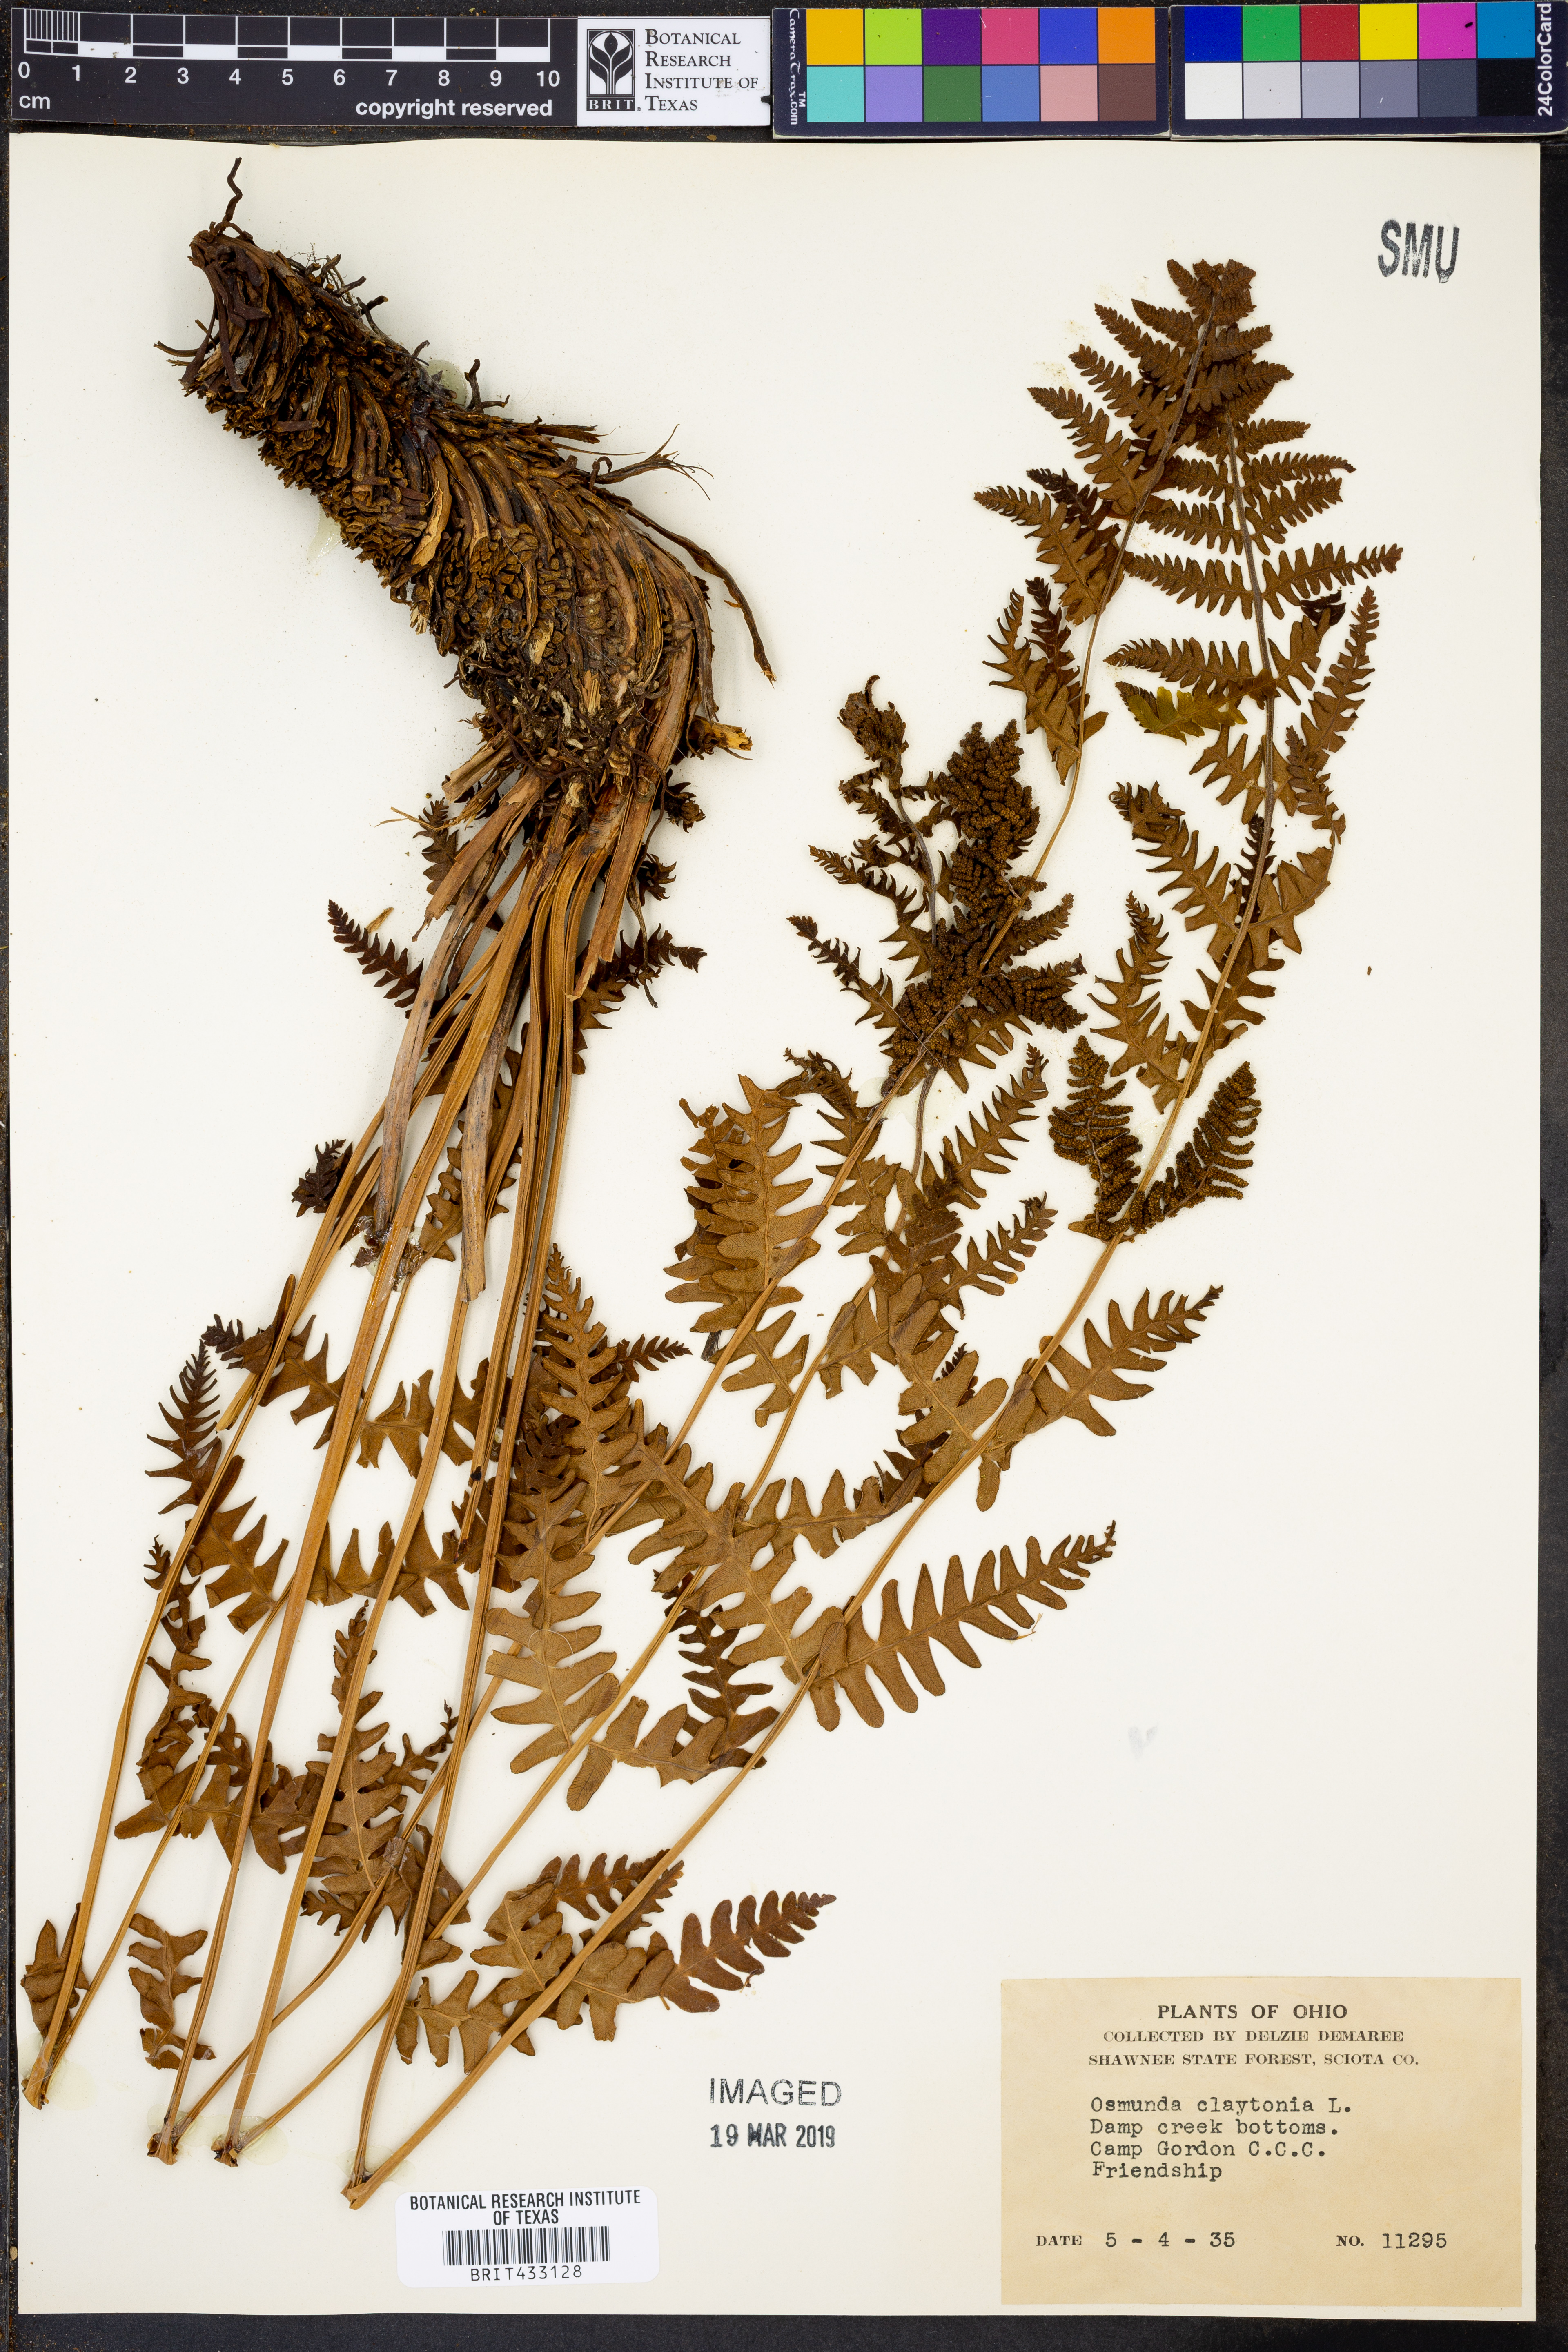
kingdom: Plantae
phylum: Tracheophyta
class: Polypodiopsida
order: Osmundales
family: Osmundaceae
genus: Claytosmunda
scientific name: Claytosmunda claytoniana
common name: Clayton's fern
